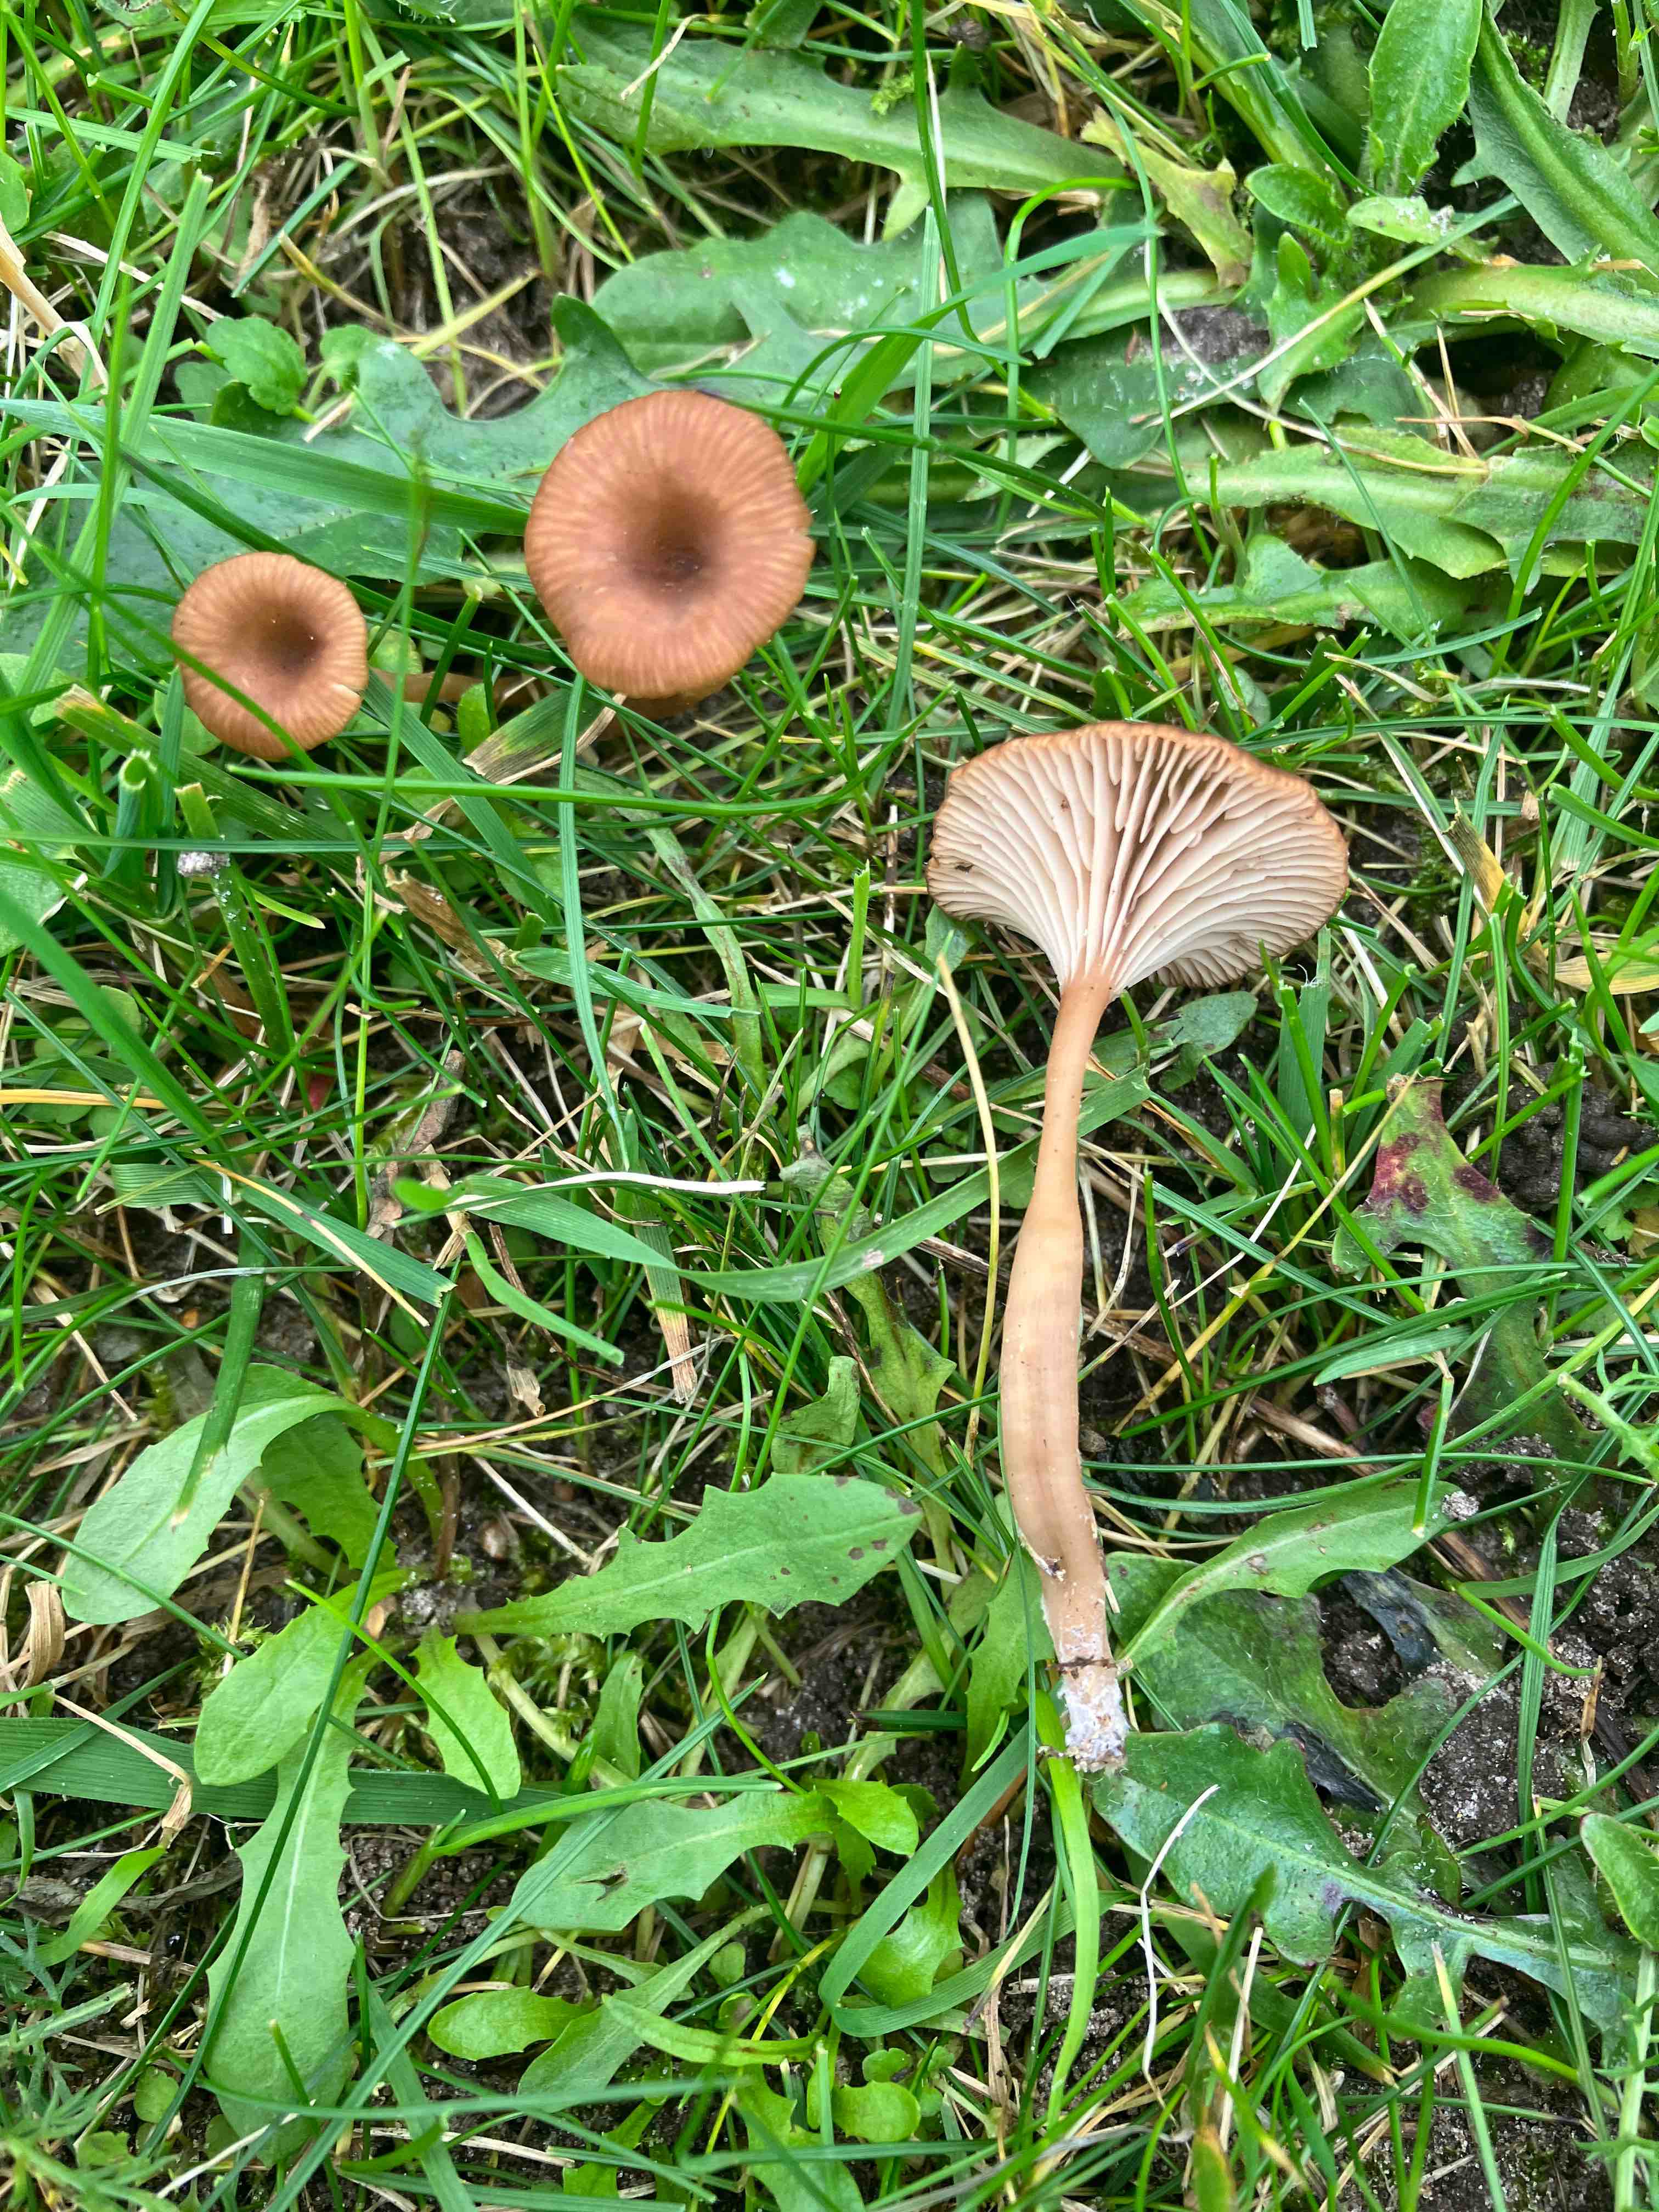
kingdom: Fungi
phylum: Basidiomycota
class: Agaricomycetes
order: Agaricales
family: Tricholomataceae
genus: Omphalina
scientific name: Omphalina pyxidata
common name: rødbrun navlehat
